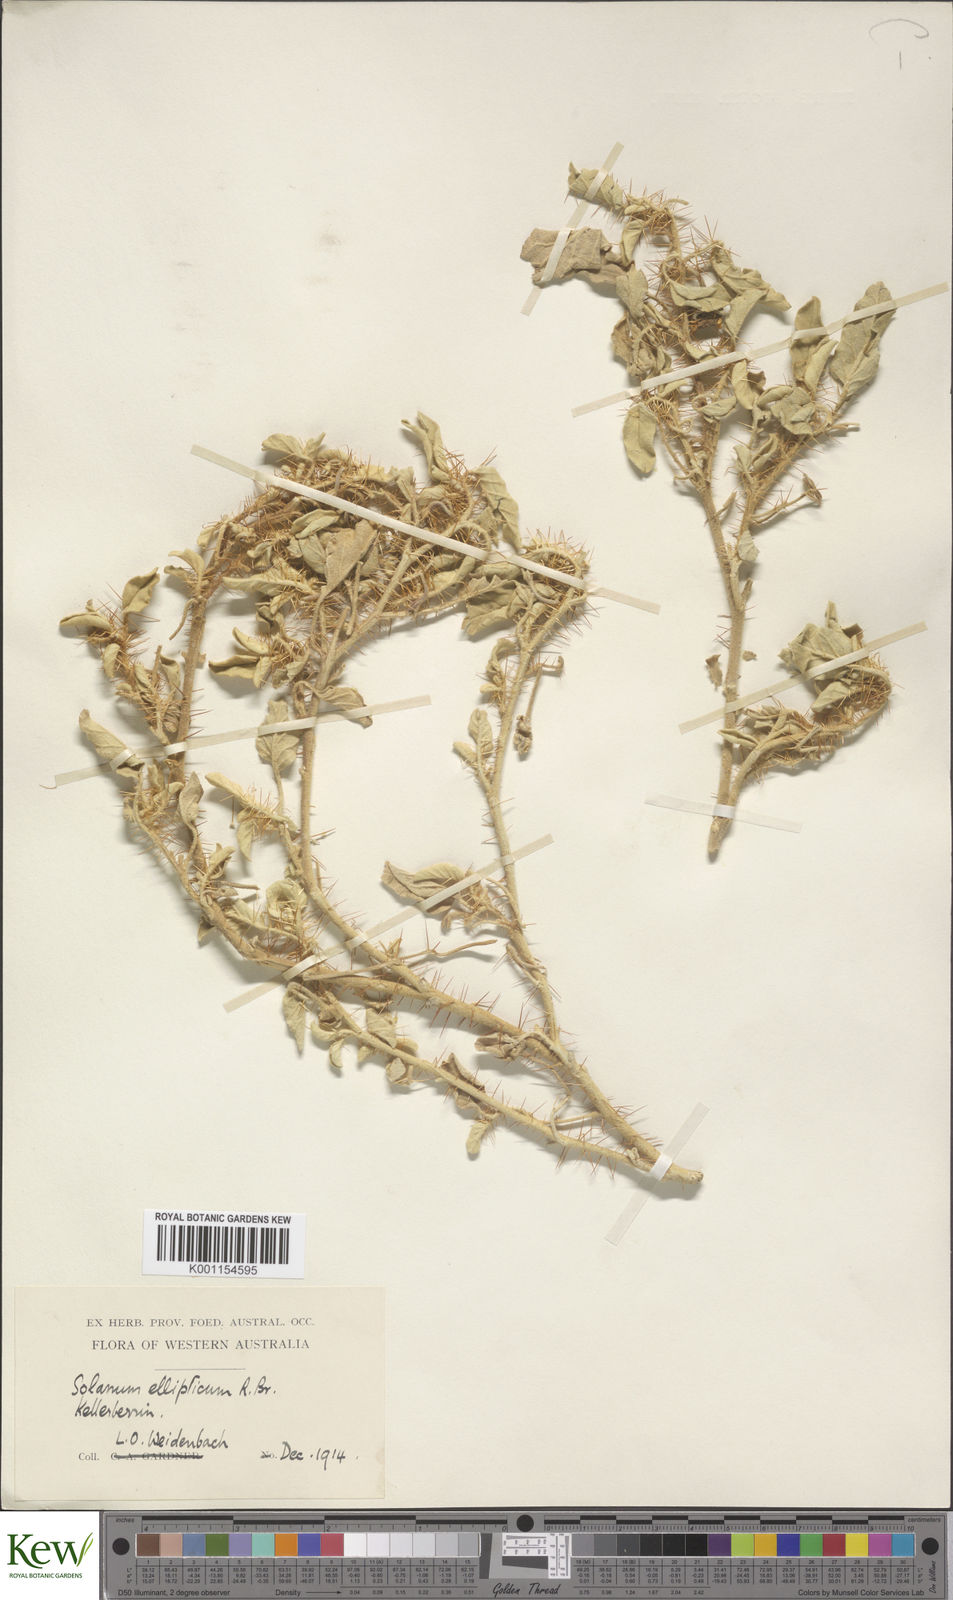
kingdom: Plantae
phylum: Tracheophyta
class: Magnoliopsida
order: Solanales
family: Solanaceae
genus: Solanum
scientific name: Solanum ellipticum
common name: Potato-bush
